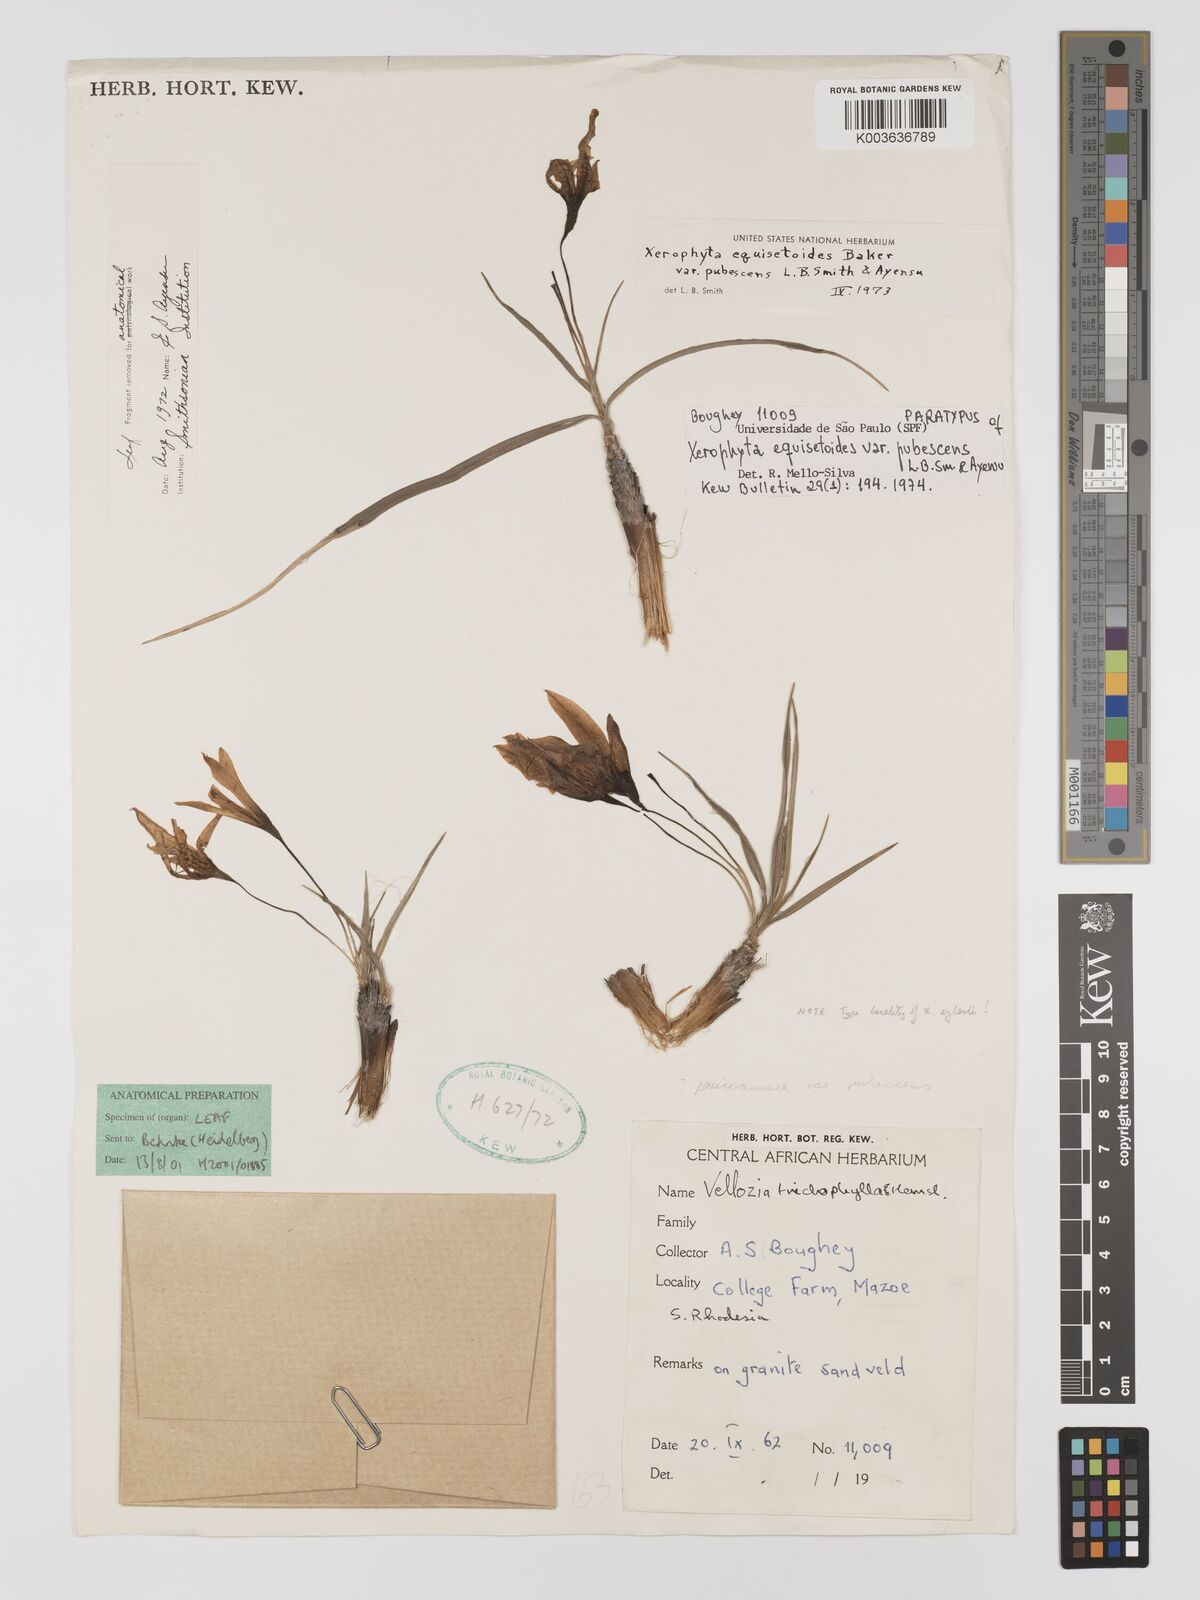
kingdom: Plantae
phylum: Tracheophyta
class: Liliopsida
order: Pandanales
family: Velloziaceae
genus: Xerophyta
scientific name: Xerophyta wentzeliana
